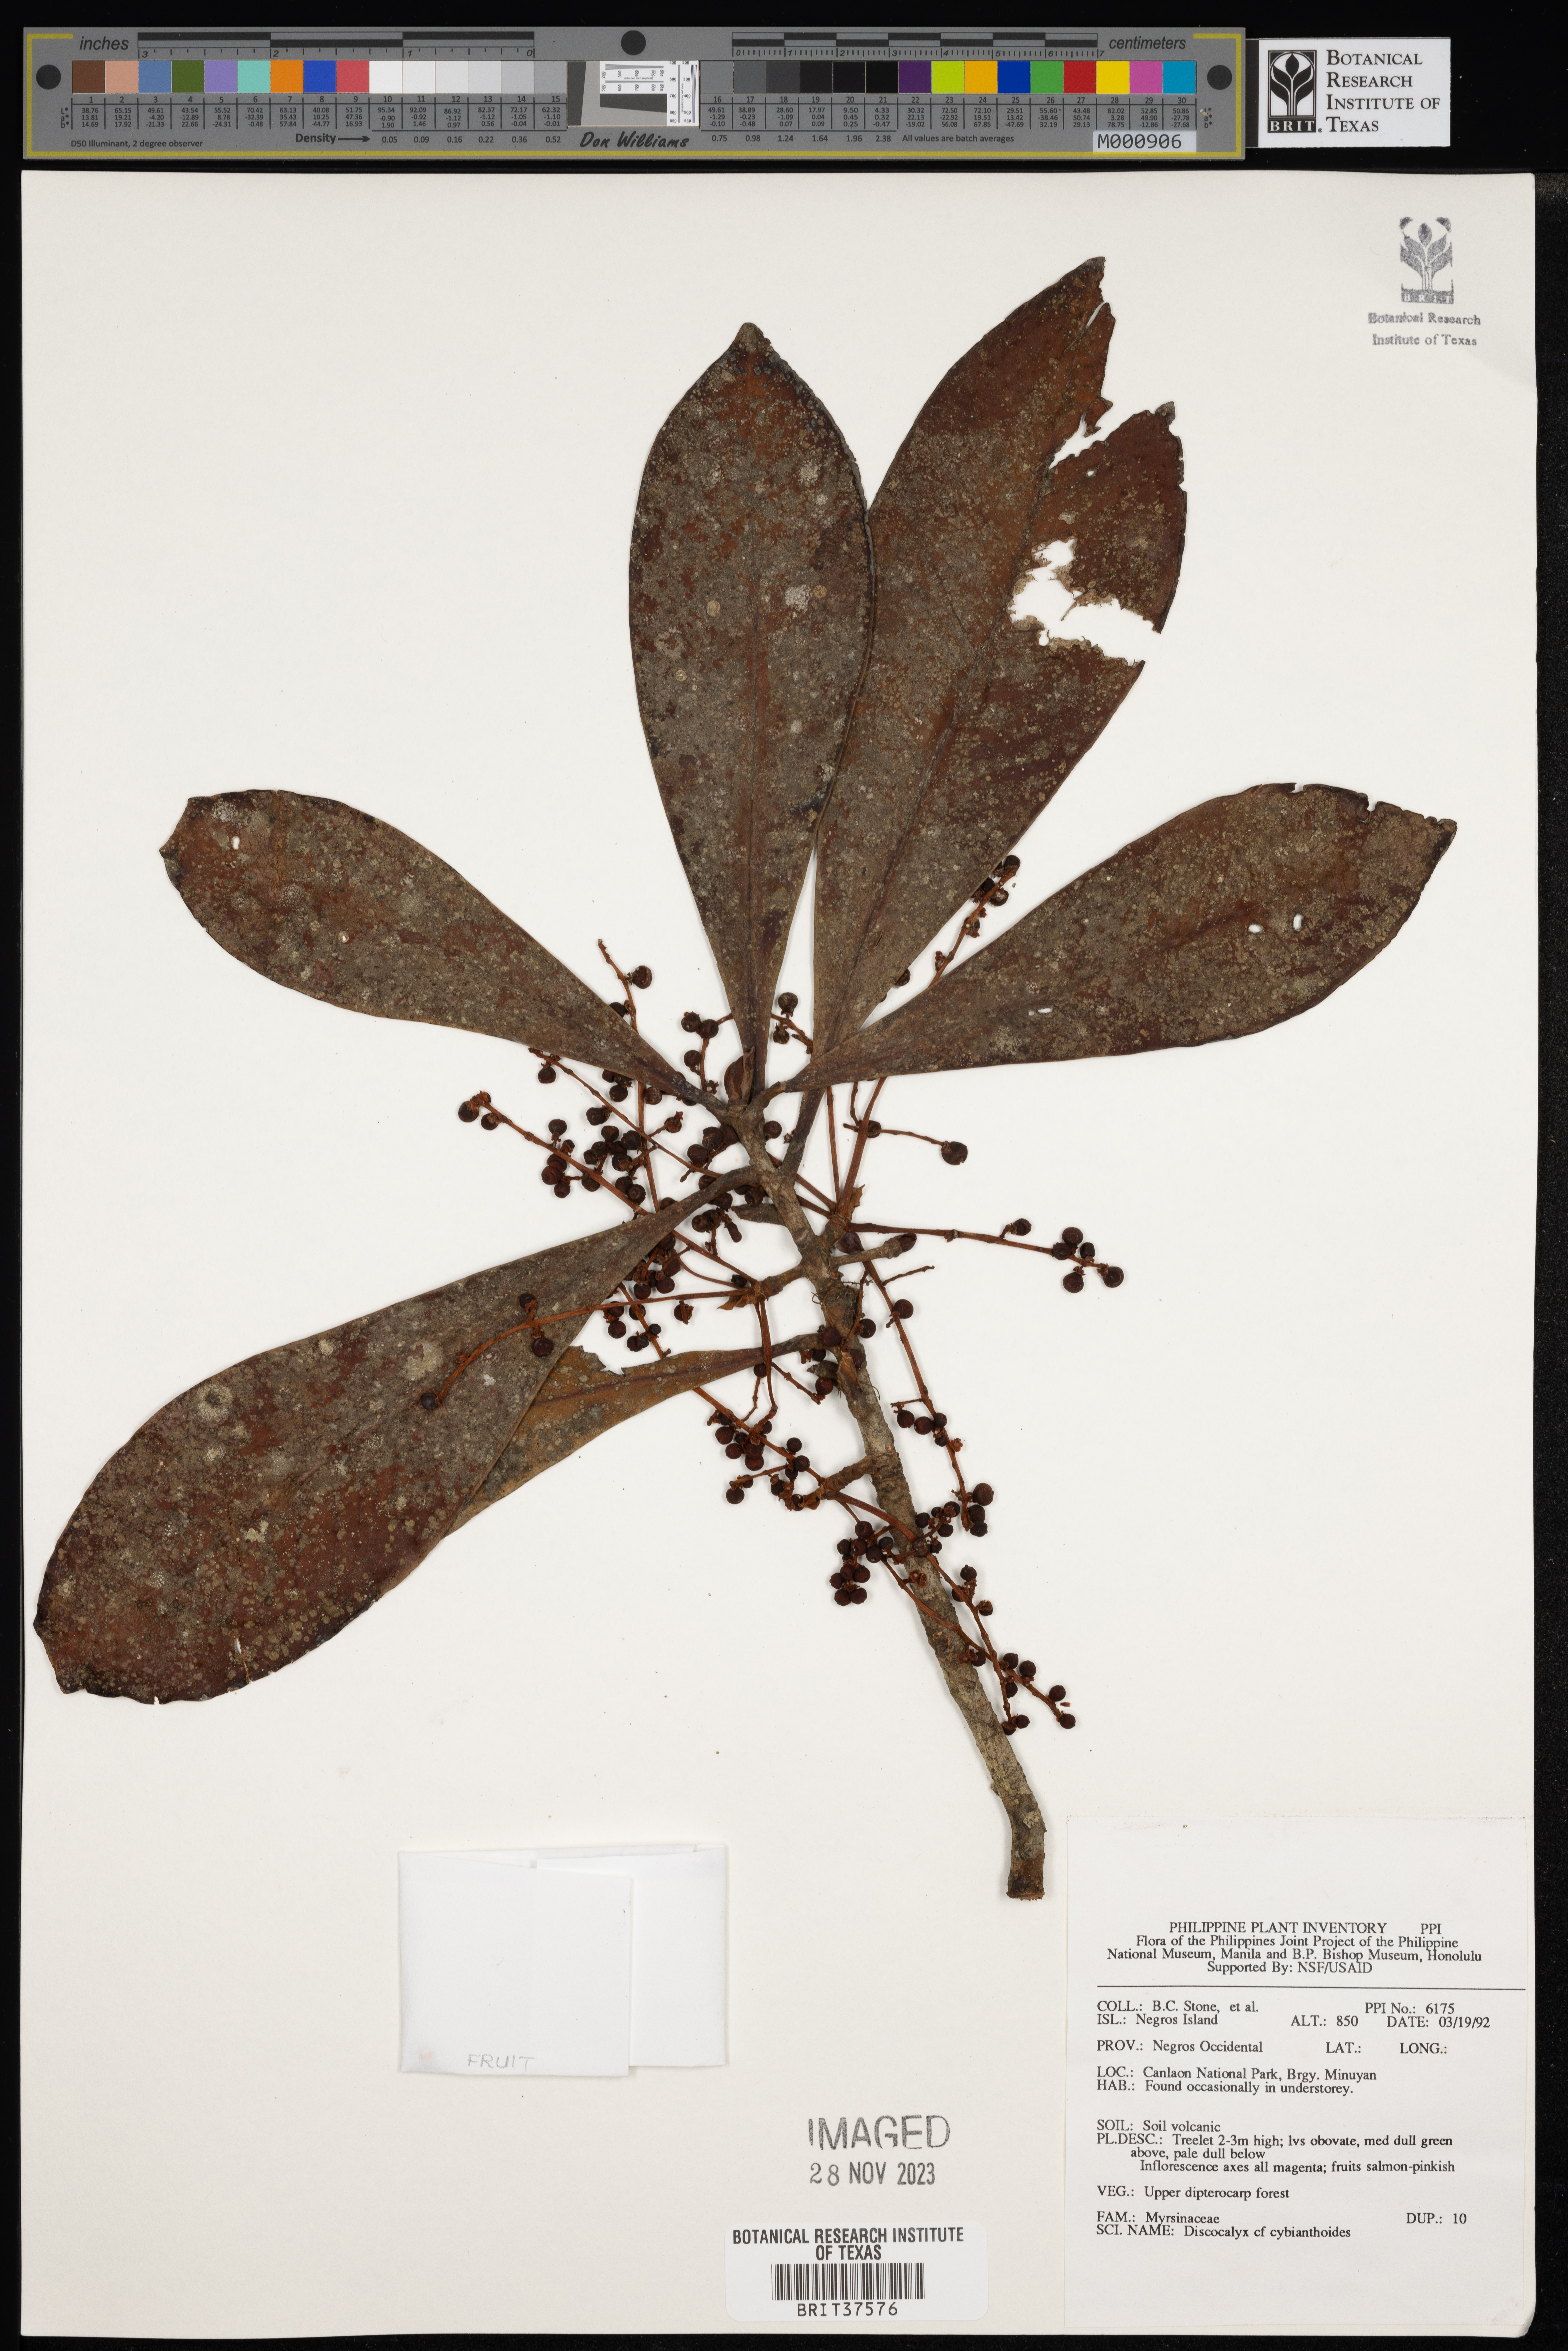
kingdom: Plantae
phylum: Tracheophyta
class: Magnoliopsida
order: Ericales
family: Primulaceae
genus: Discocalyx
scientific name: Discocalyx cybianthoides
